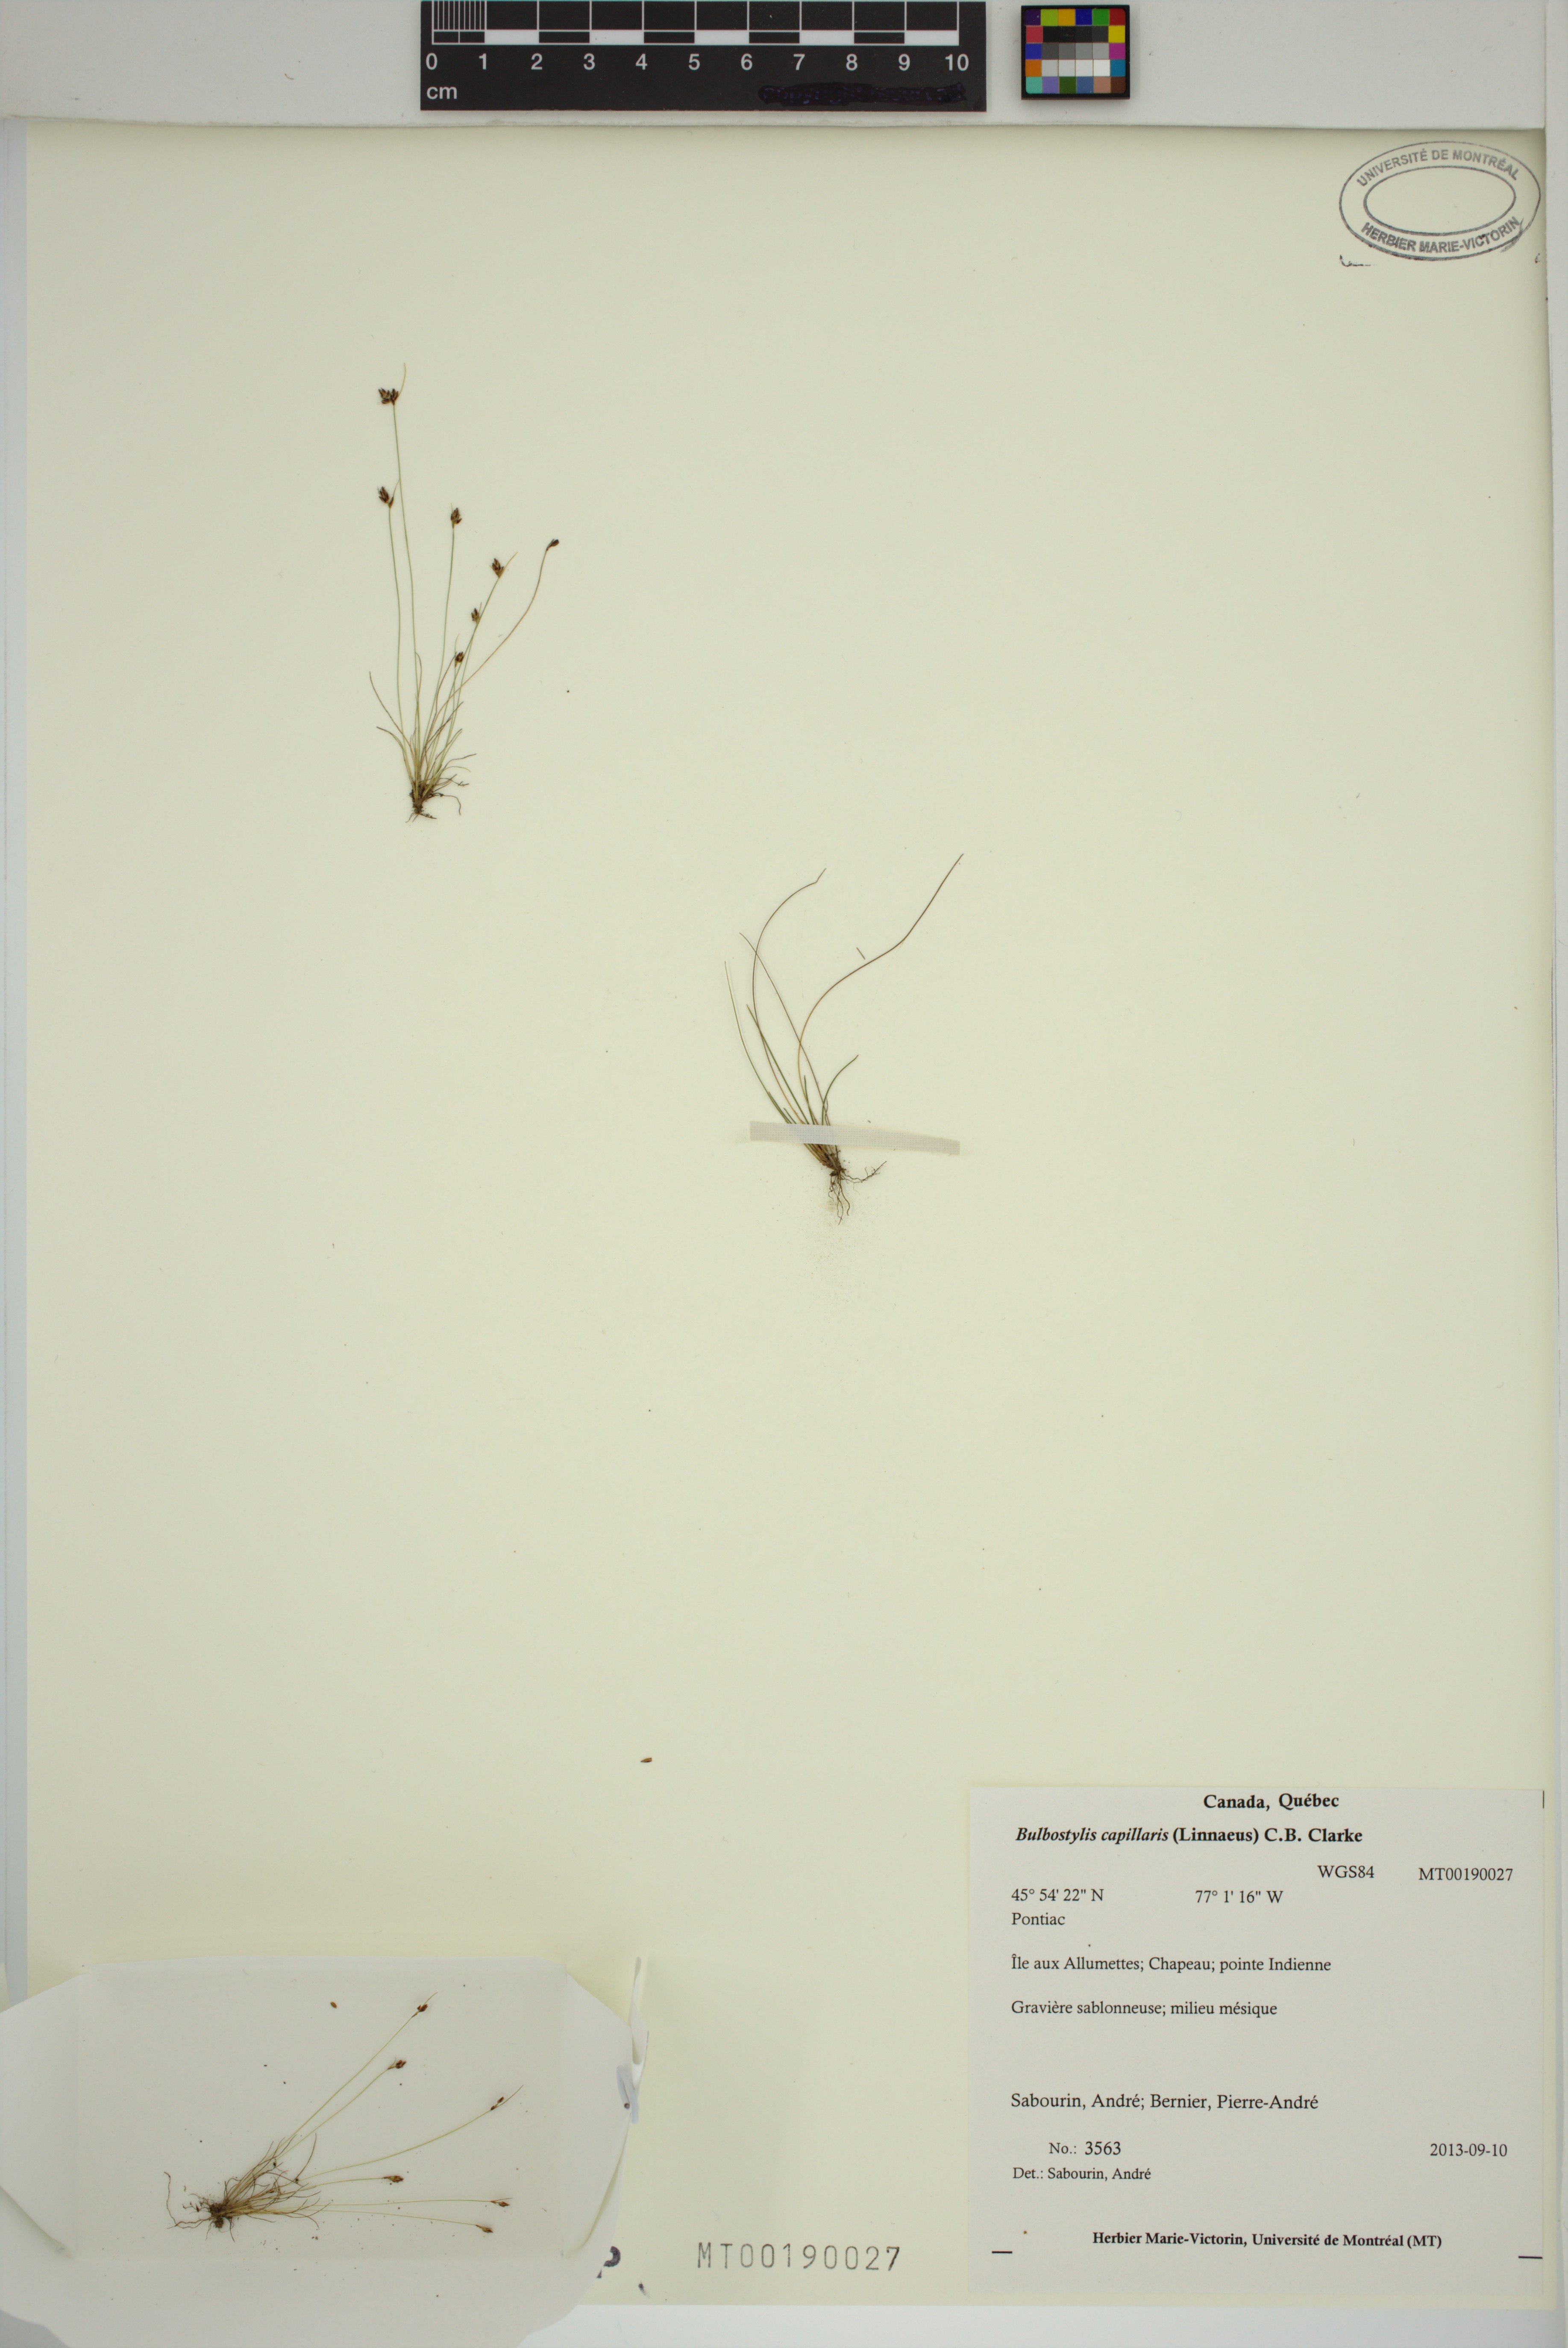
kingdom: Plantae
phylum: Tracheophyta
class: Liliopsida
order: Poales
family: Cyperaceae
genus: Bulbostylis
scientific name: Bulbostylis capillaris
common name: Densetuft hairsedge
